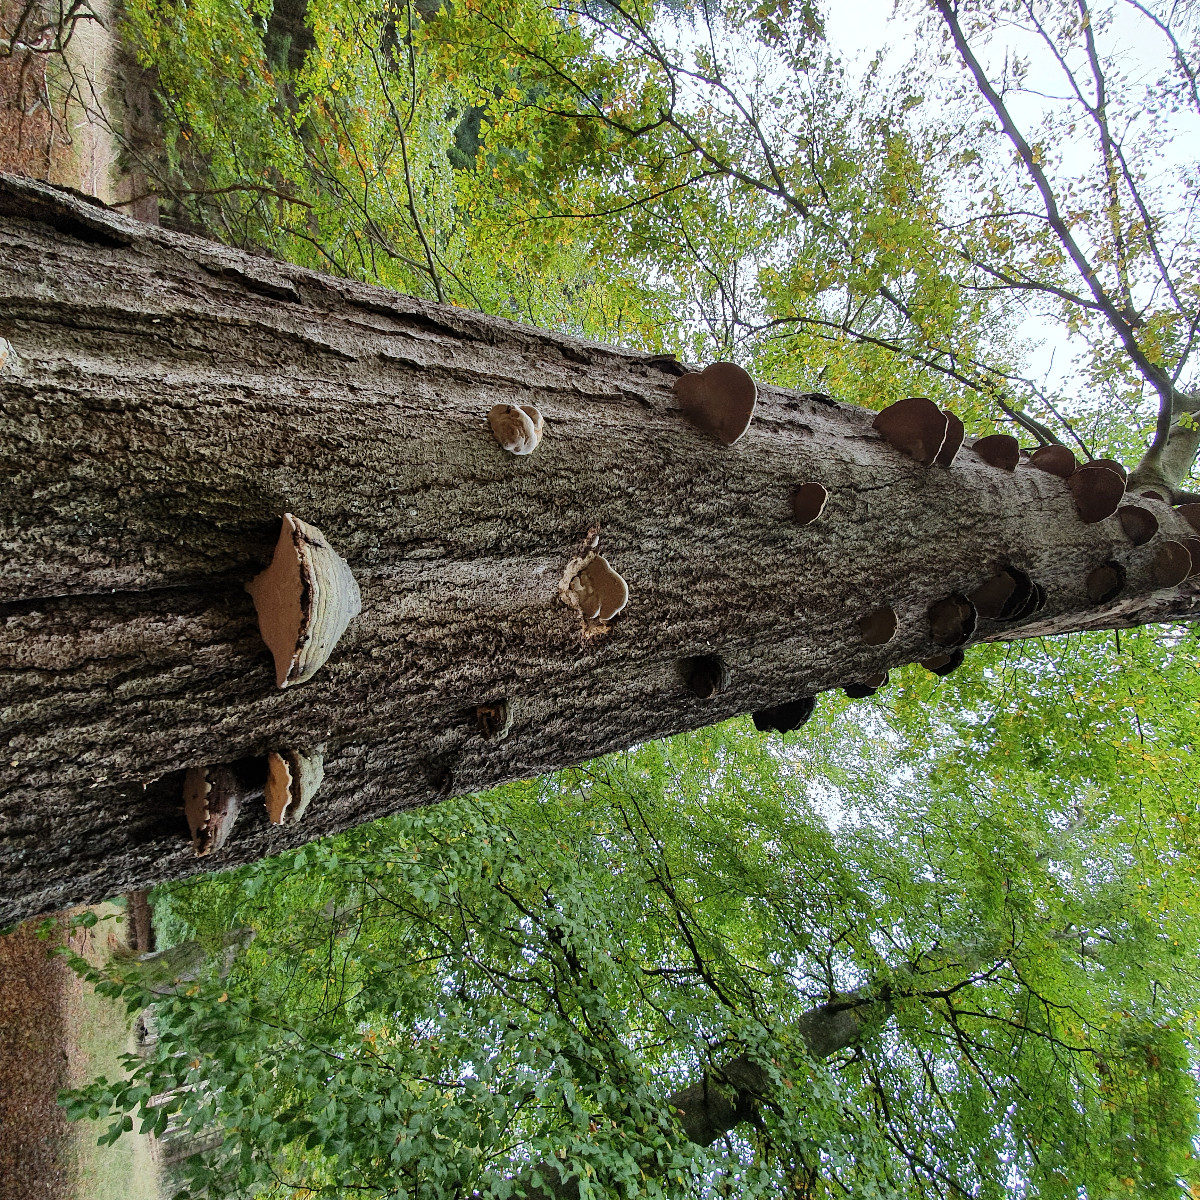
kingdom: Fungi
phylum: Basidiomycota
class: Agaricomycetes
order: Polyporales
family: Polyporaceae
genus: Fomes
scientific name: Fomes fomentarius
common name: tøndersvamp
